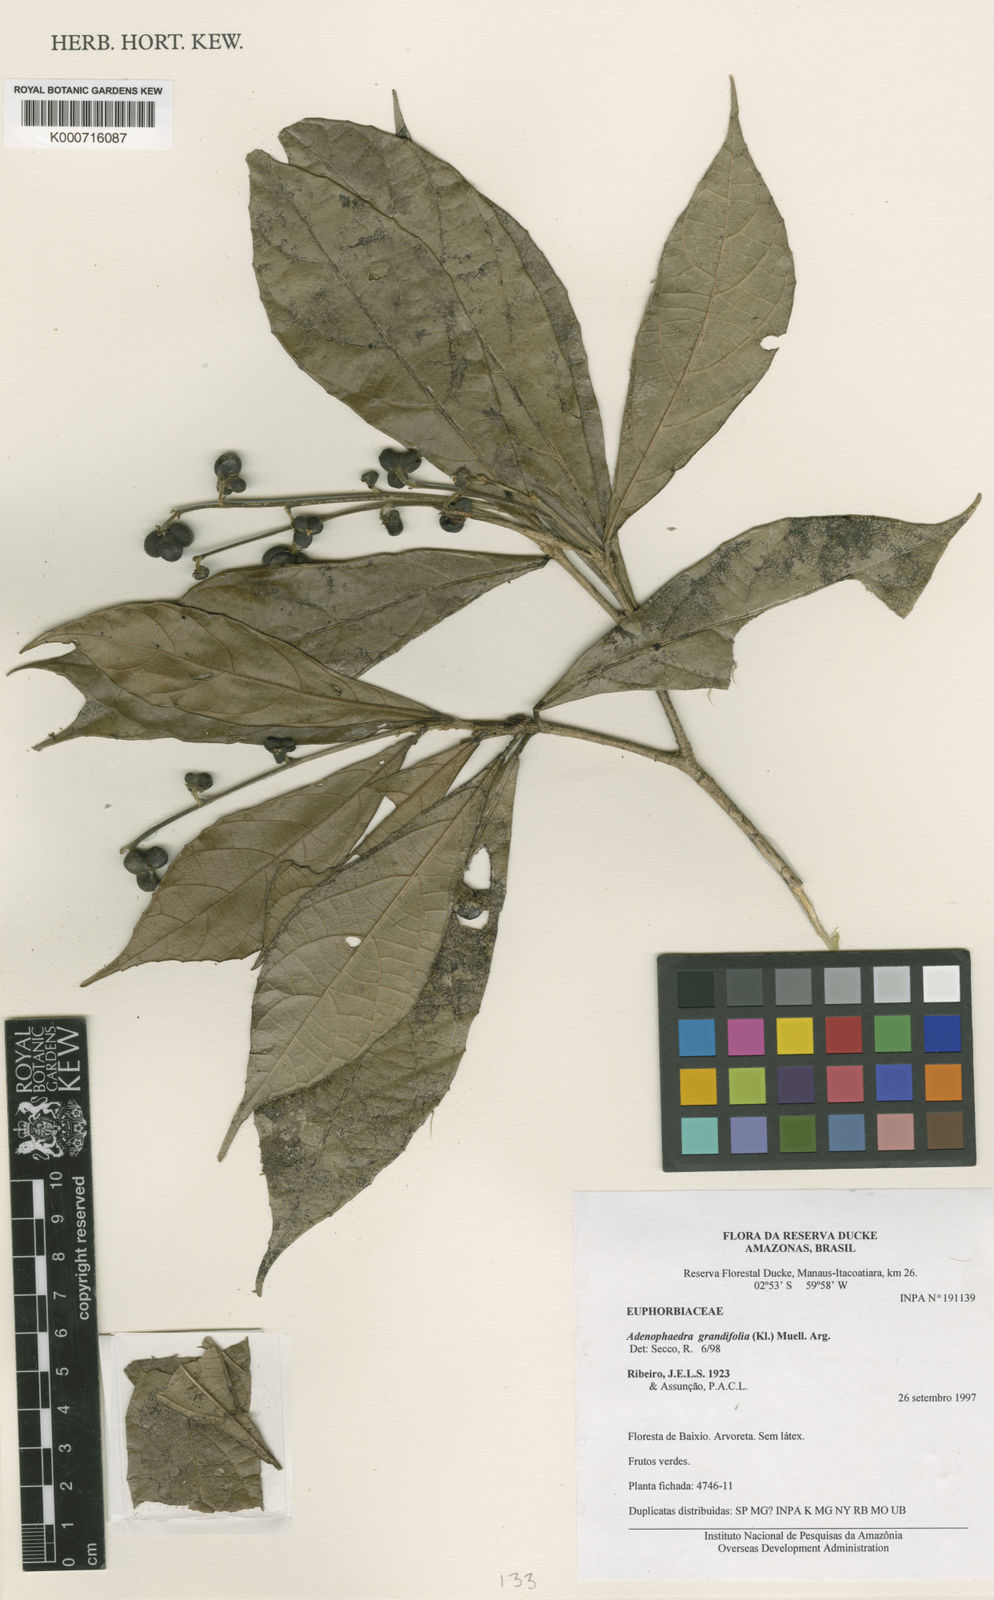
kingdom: Plantae
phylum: Tracheophyta
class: Magnoliopsida
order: Malpighiales
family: Euphorbiaceae
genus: Adenophaedra
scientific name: Adenophaedra
